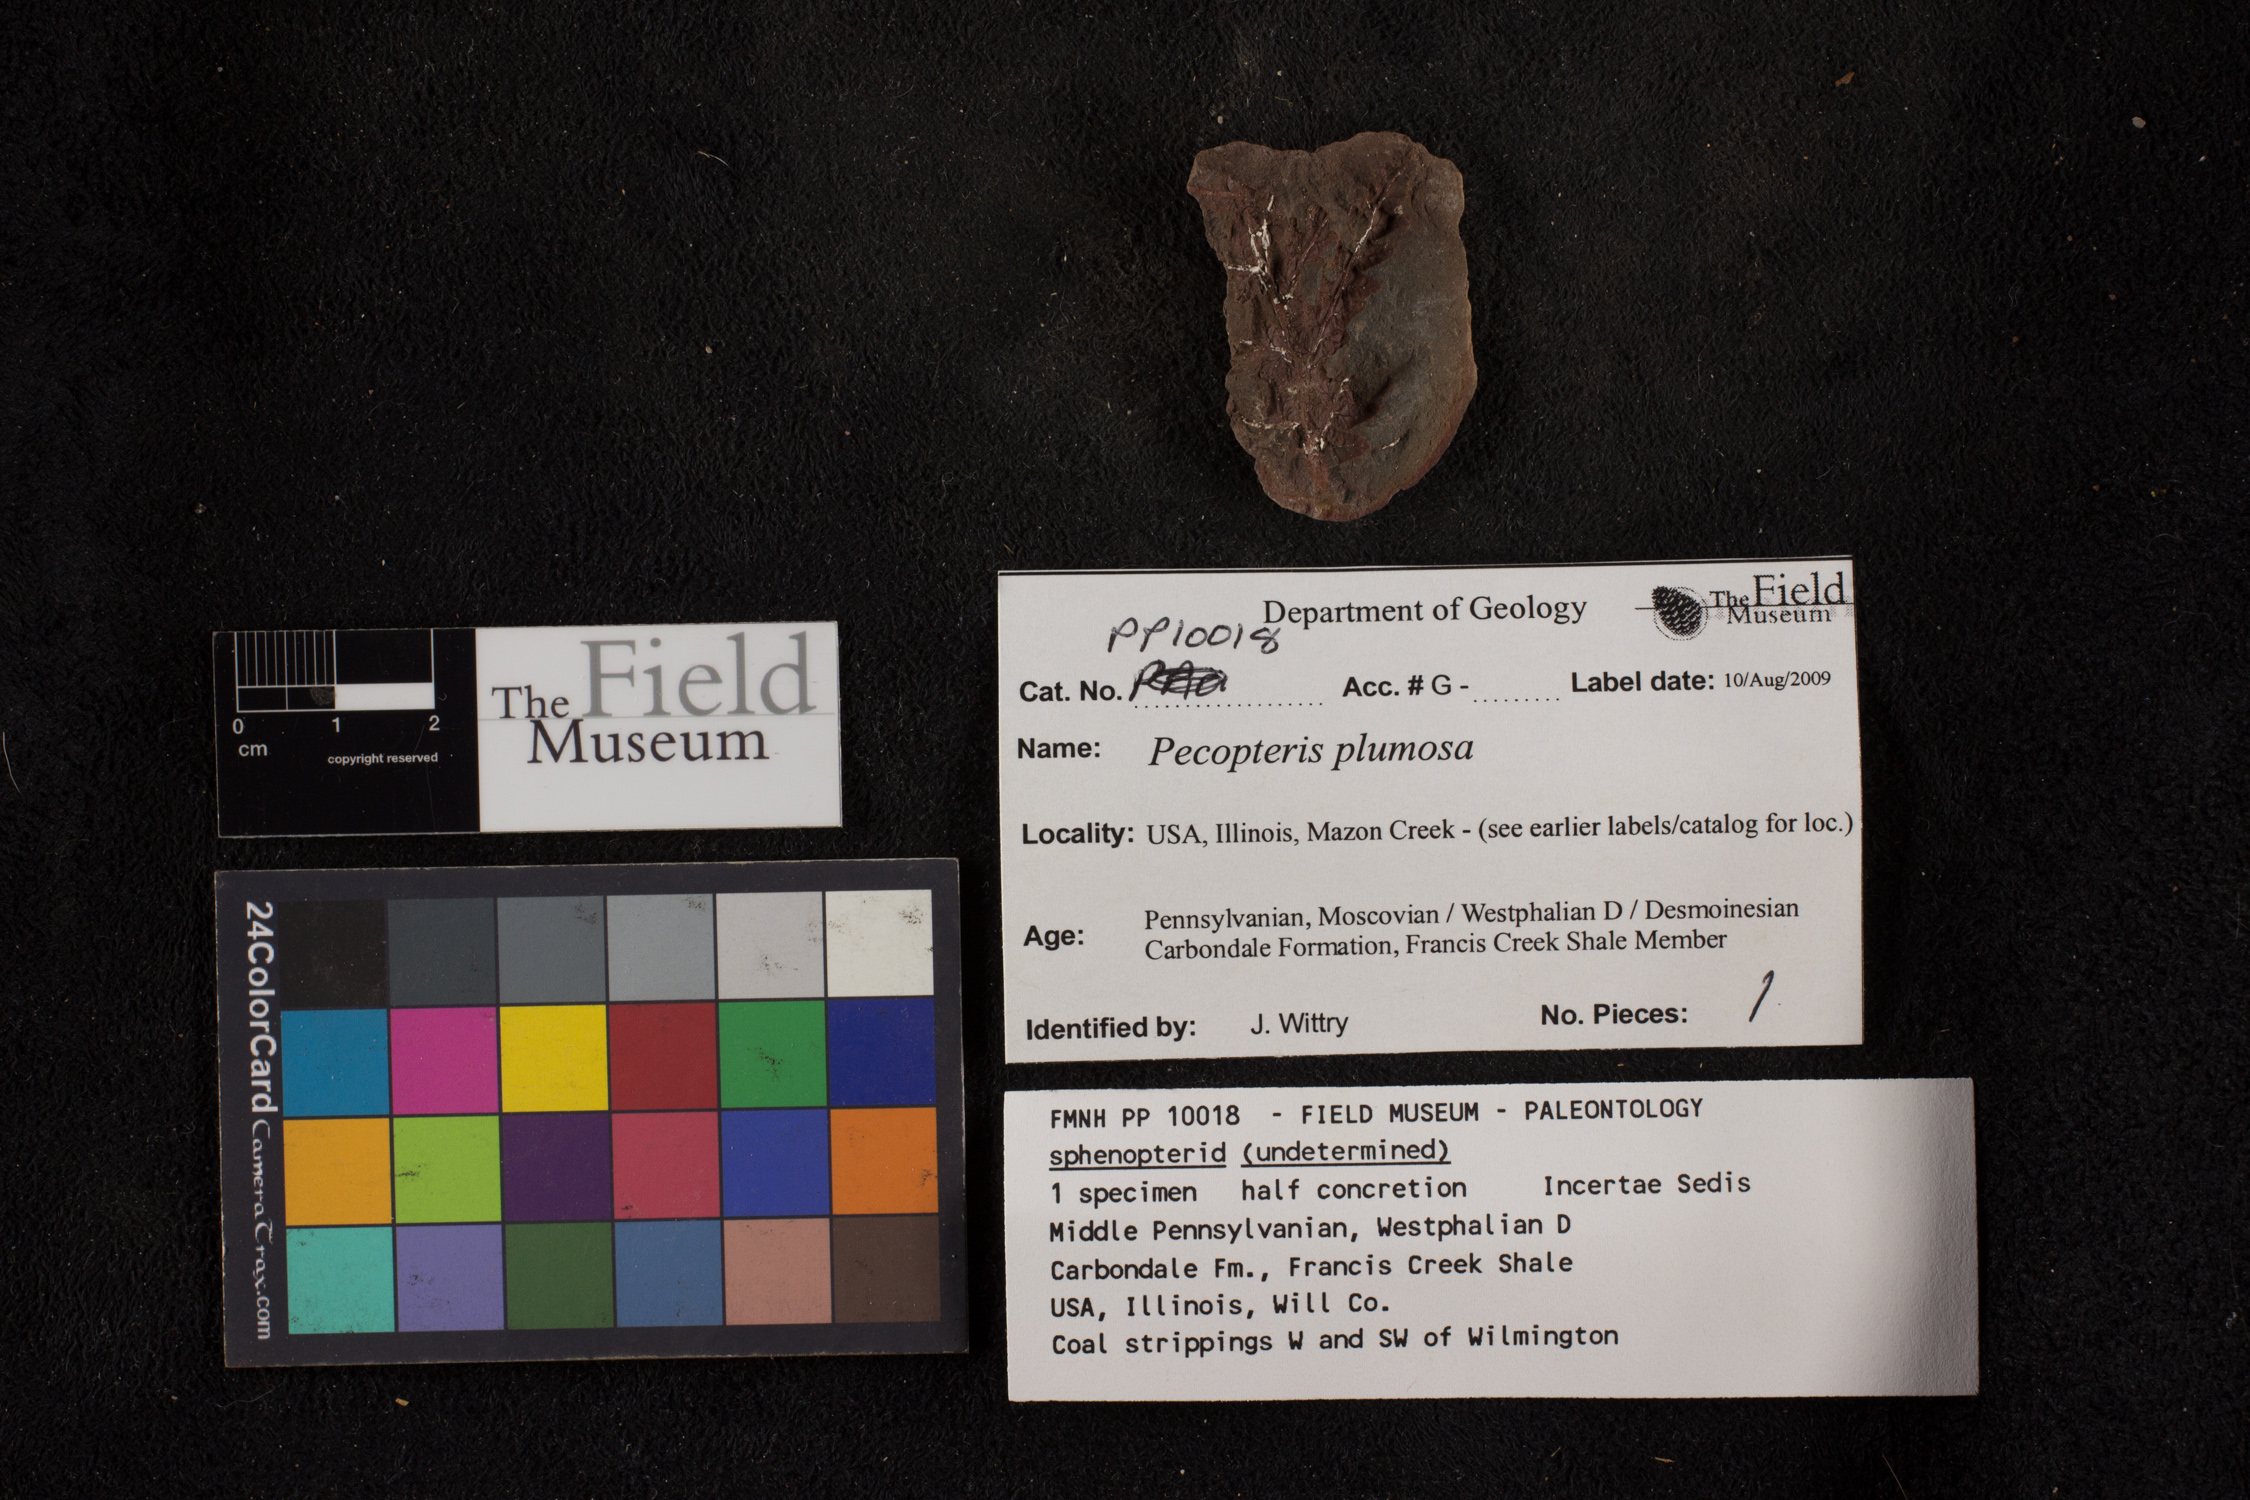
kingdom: Plantae
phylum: Tracheophyta
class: Polypodiopsida
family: Tedeleaceae
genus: Senftenbergia
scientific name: Senftenbergia
